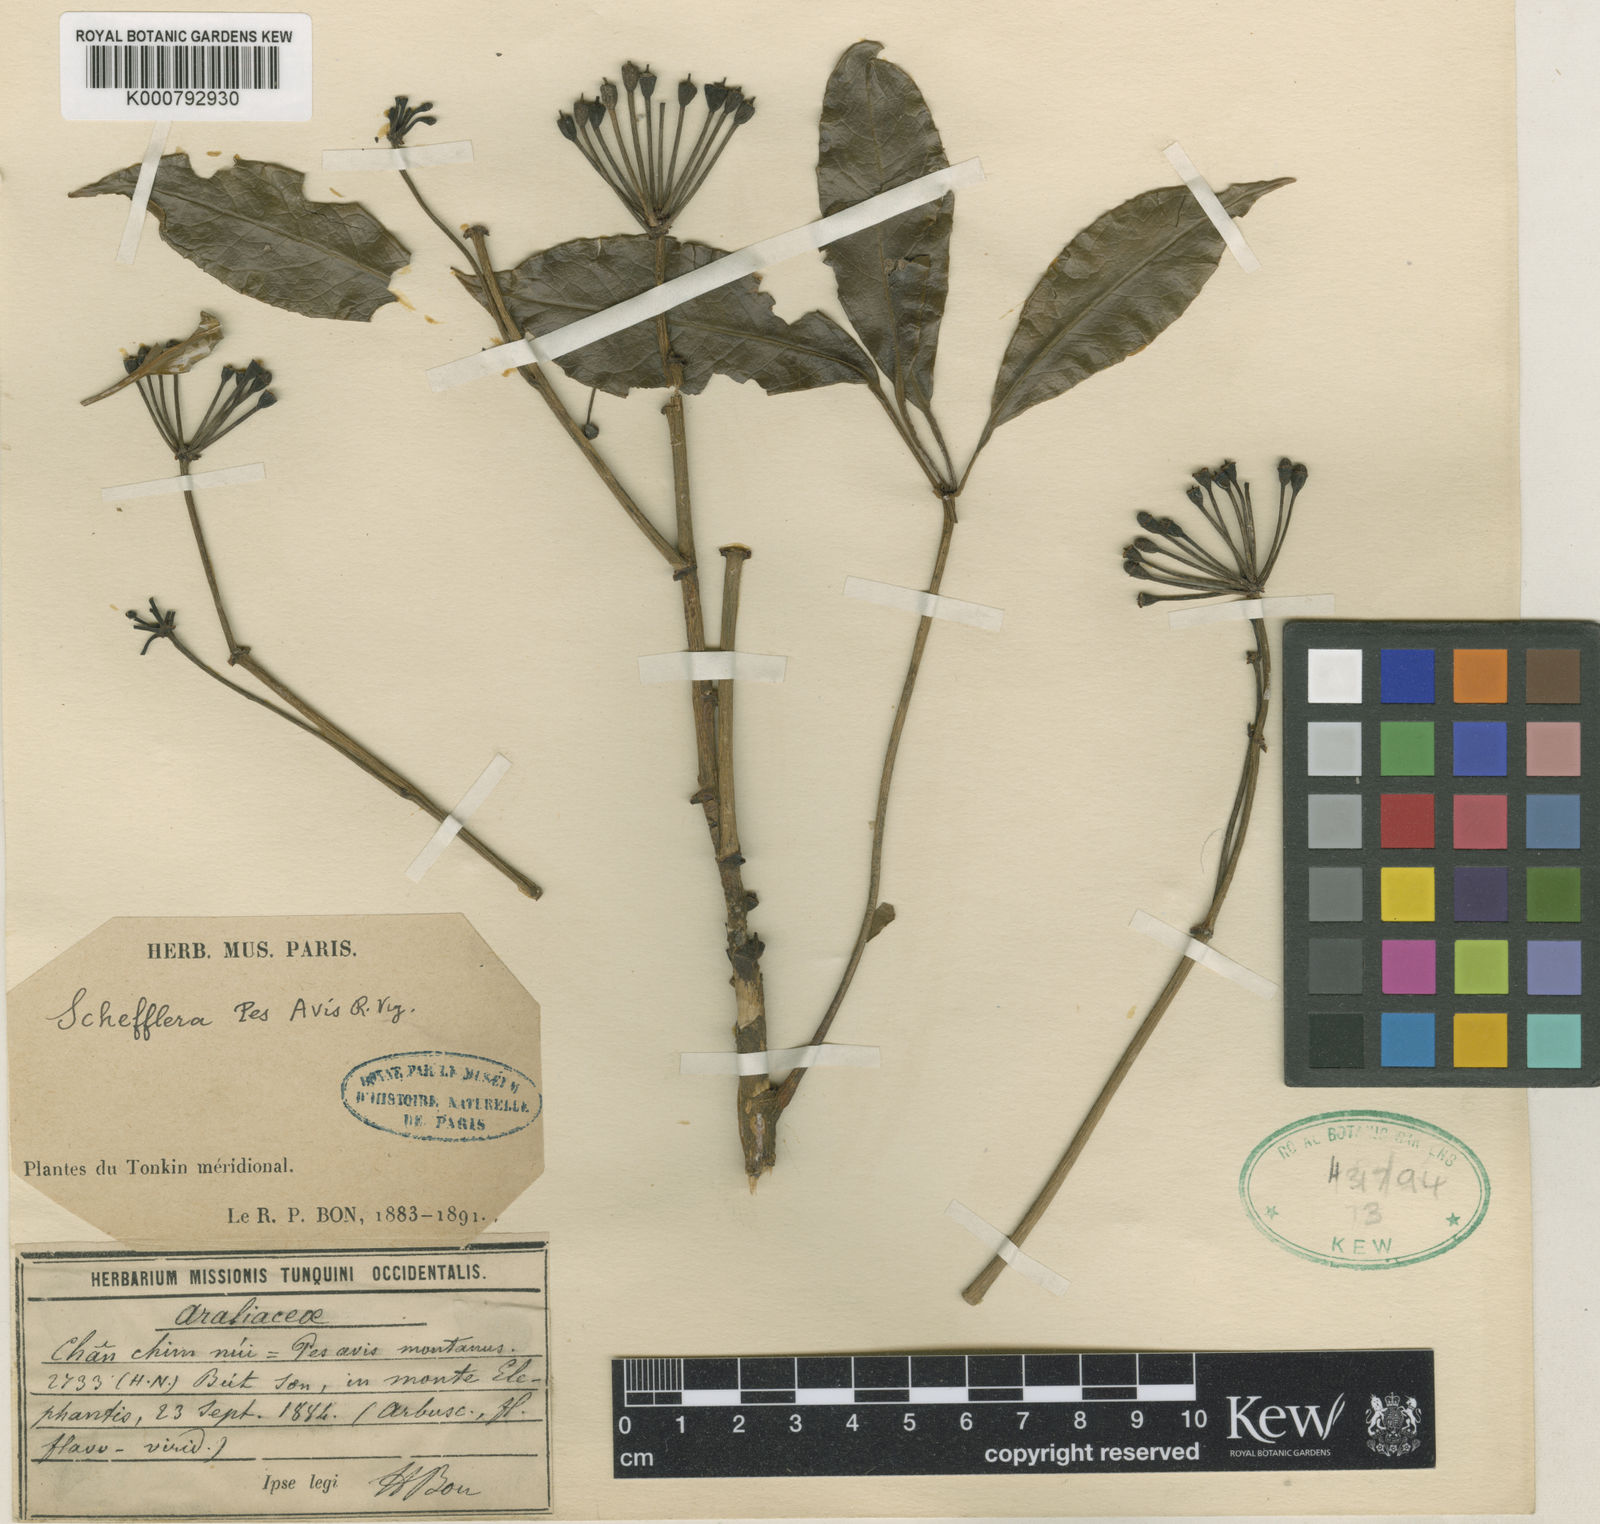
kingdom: Plantae
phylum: Tracheophyta
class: Magnoliopsida
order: Apiales
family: Araliaceae
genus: Heptapleurum
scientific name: Heptapleurum pes-avis
